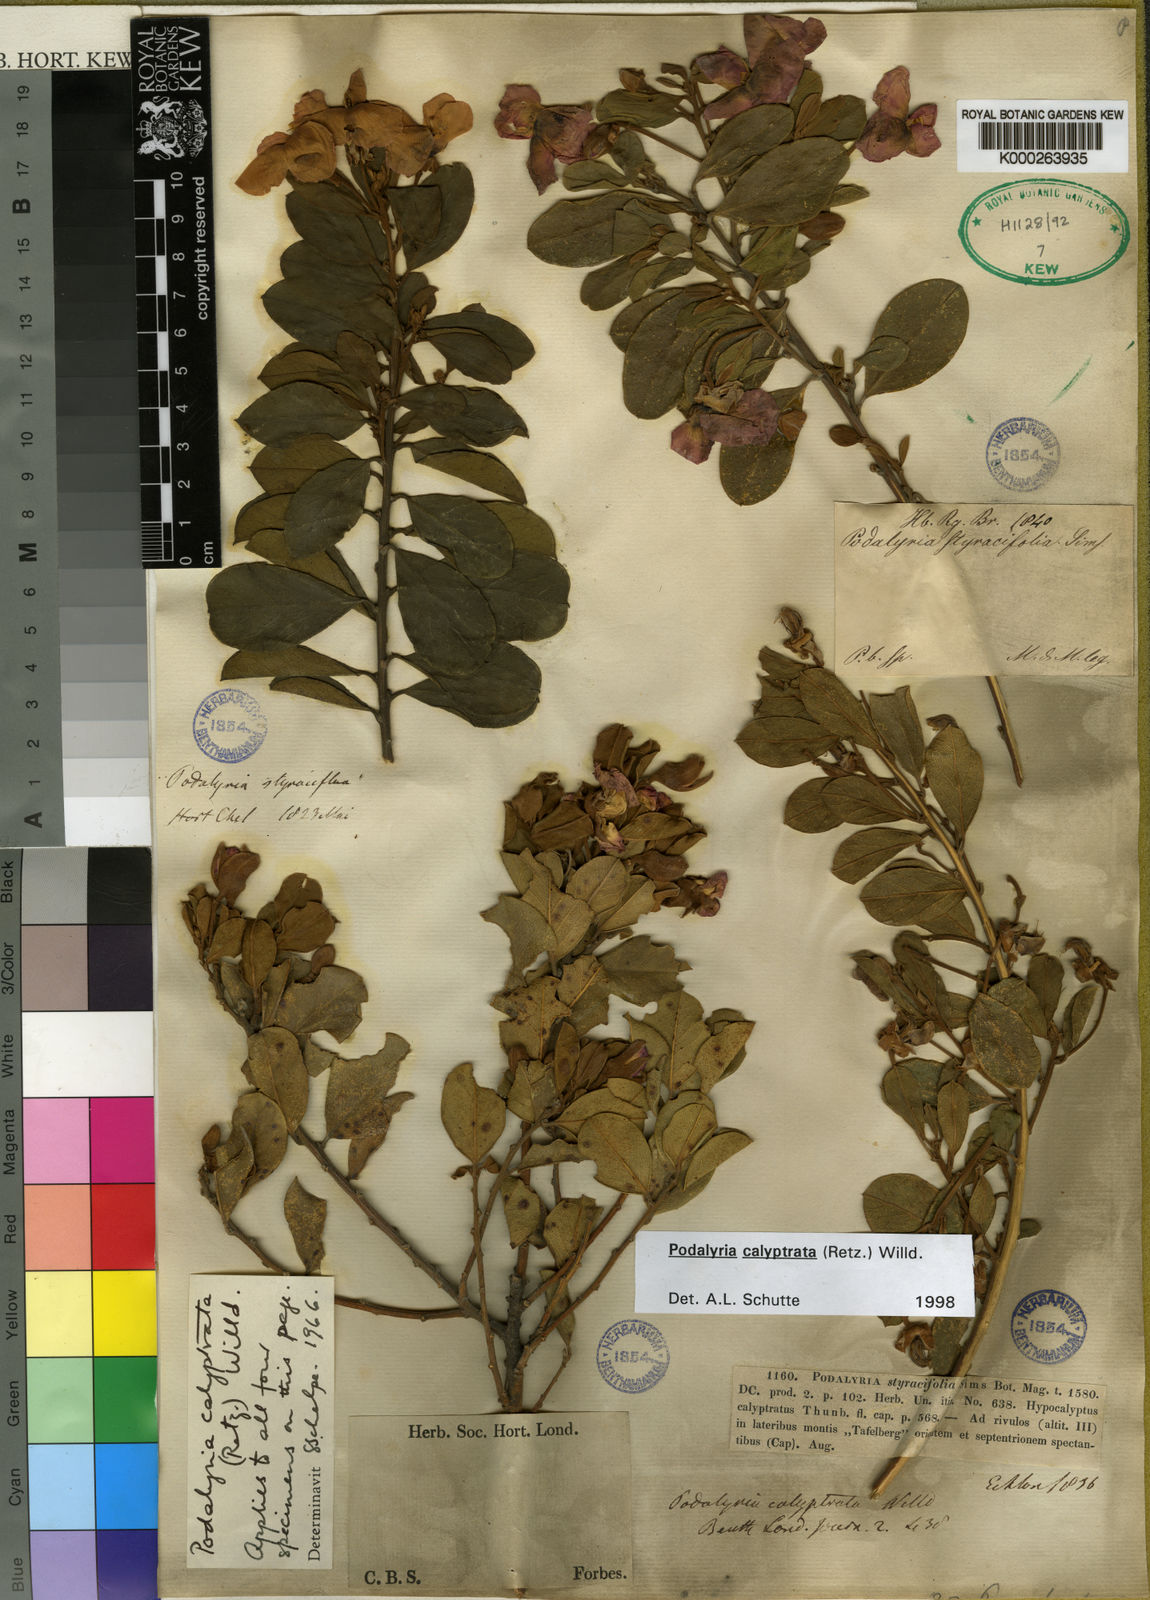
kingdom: Plantae
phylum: Tracheophyta
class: Magnoliopsida
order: Fabales
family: Fabaceae
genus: Podalyria
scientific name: Podalyria calyptrata
